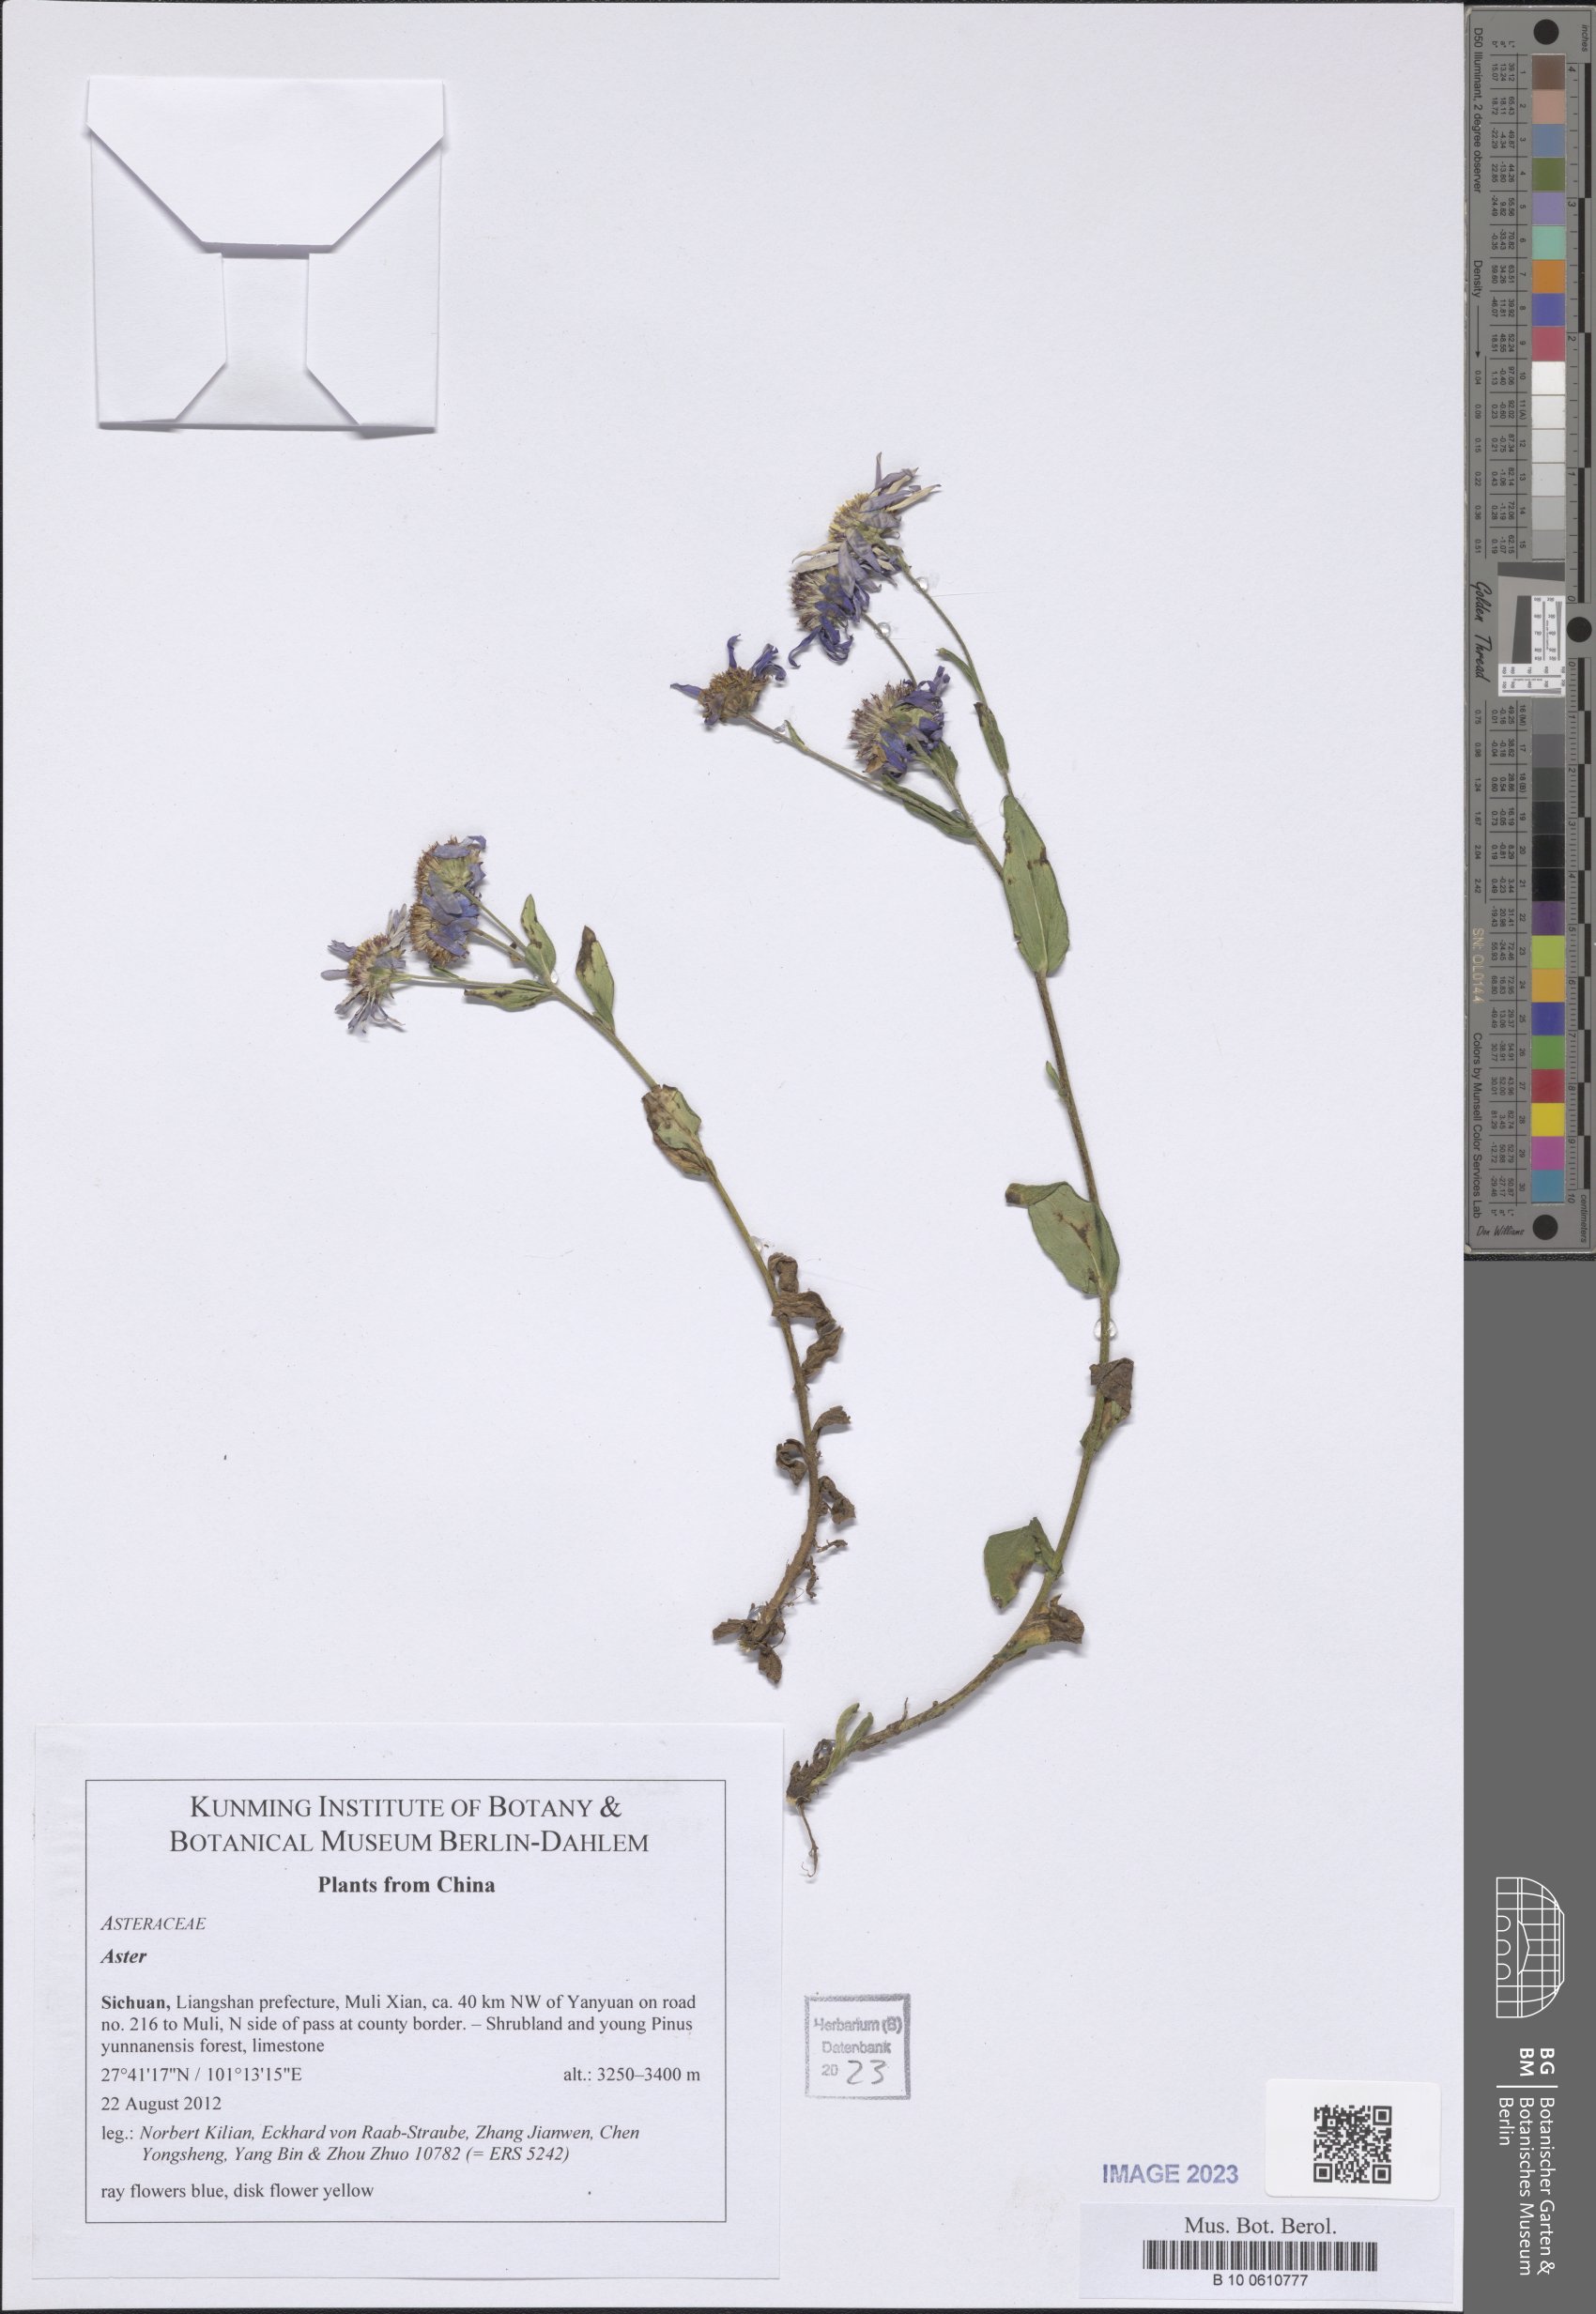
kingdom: Plantae
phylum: Tracheophyta
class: Magnoliopsida
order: Asterales
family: Asteraceae
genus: Aster
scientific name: Aster
